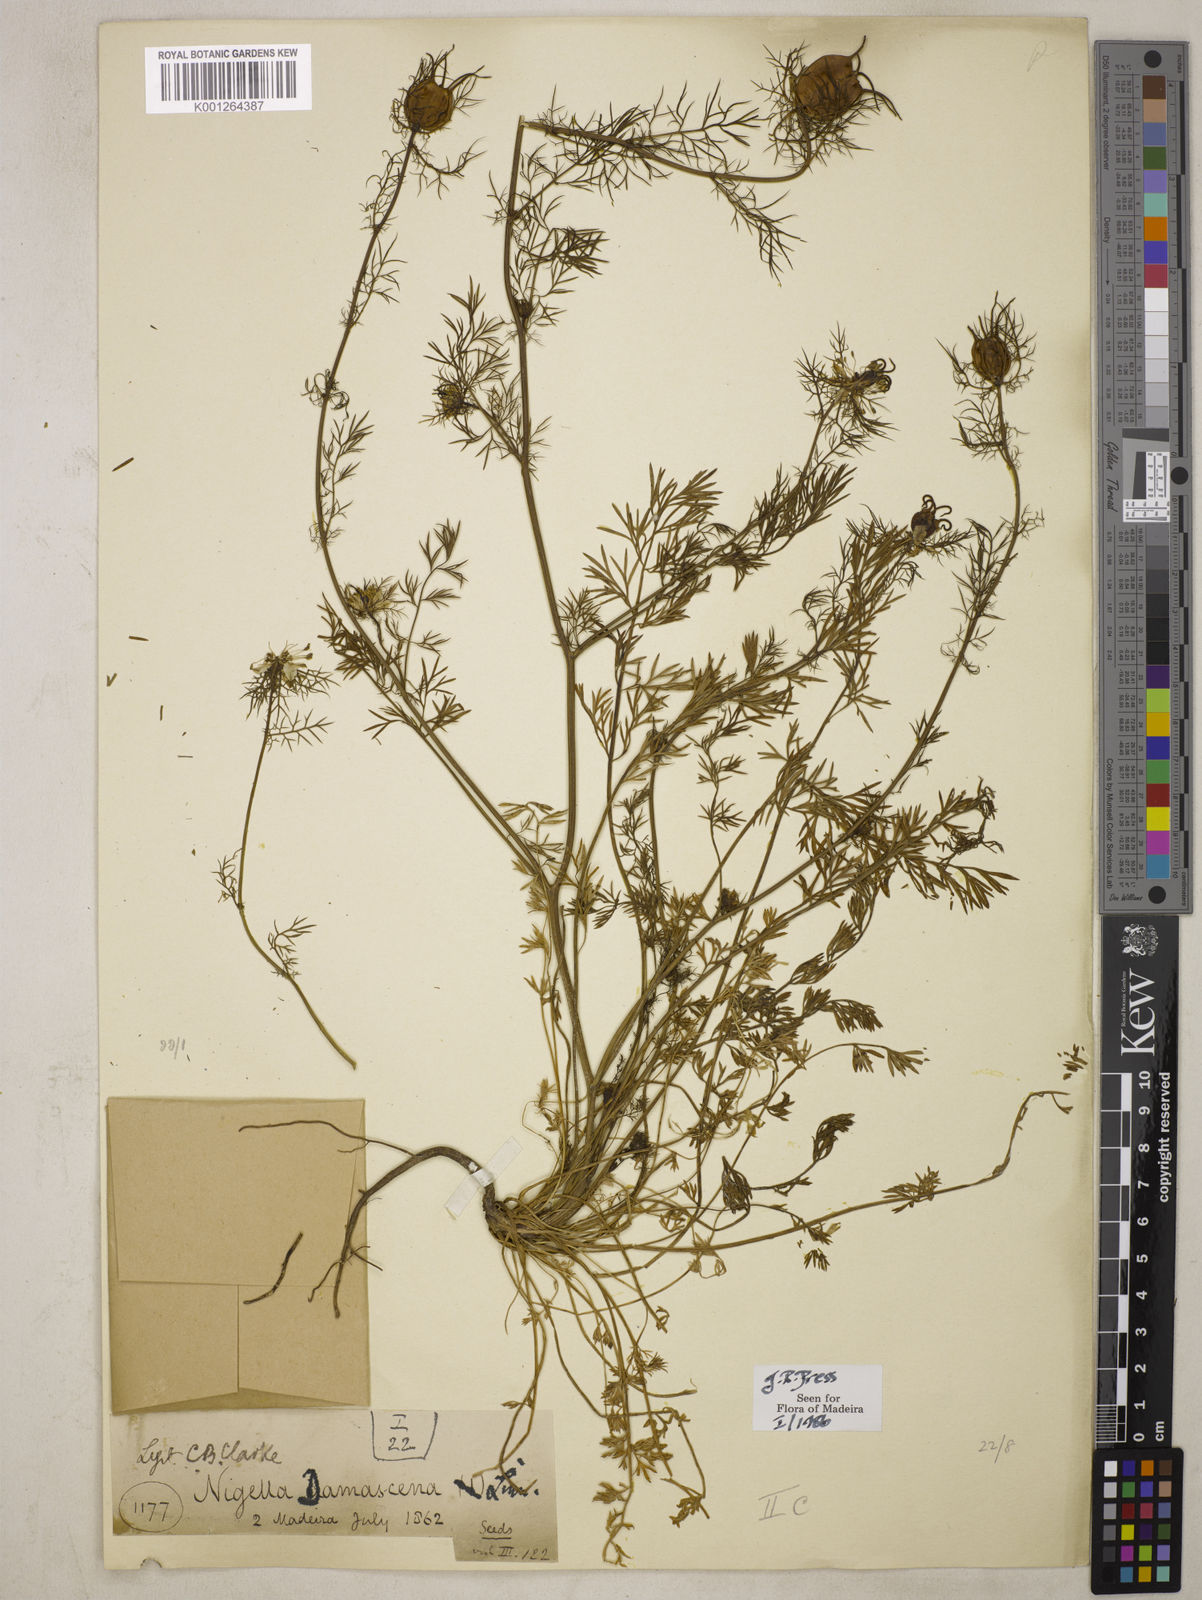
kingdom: Plantae
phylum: Tracheophyta
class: Magnoliopsida
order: Ranunculales
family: Ranunculaceae
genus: Nigella
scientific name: Nigella damascena
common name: Love-in-a-mist
